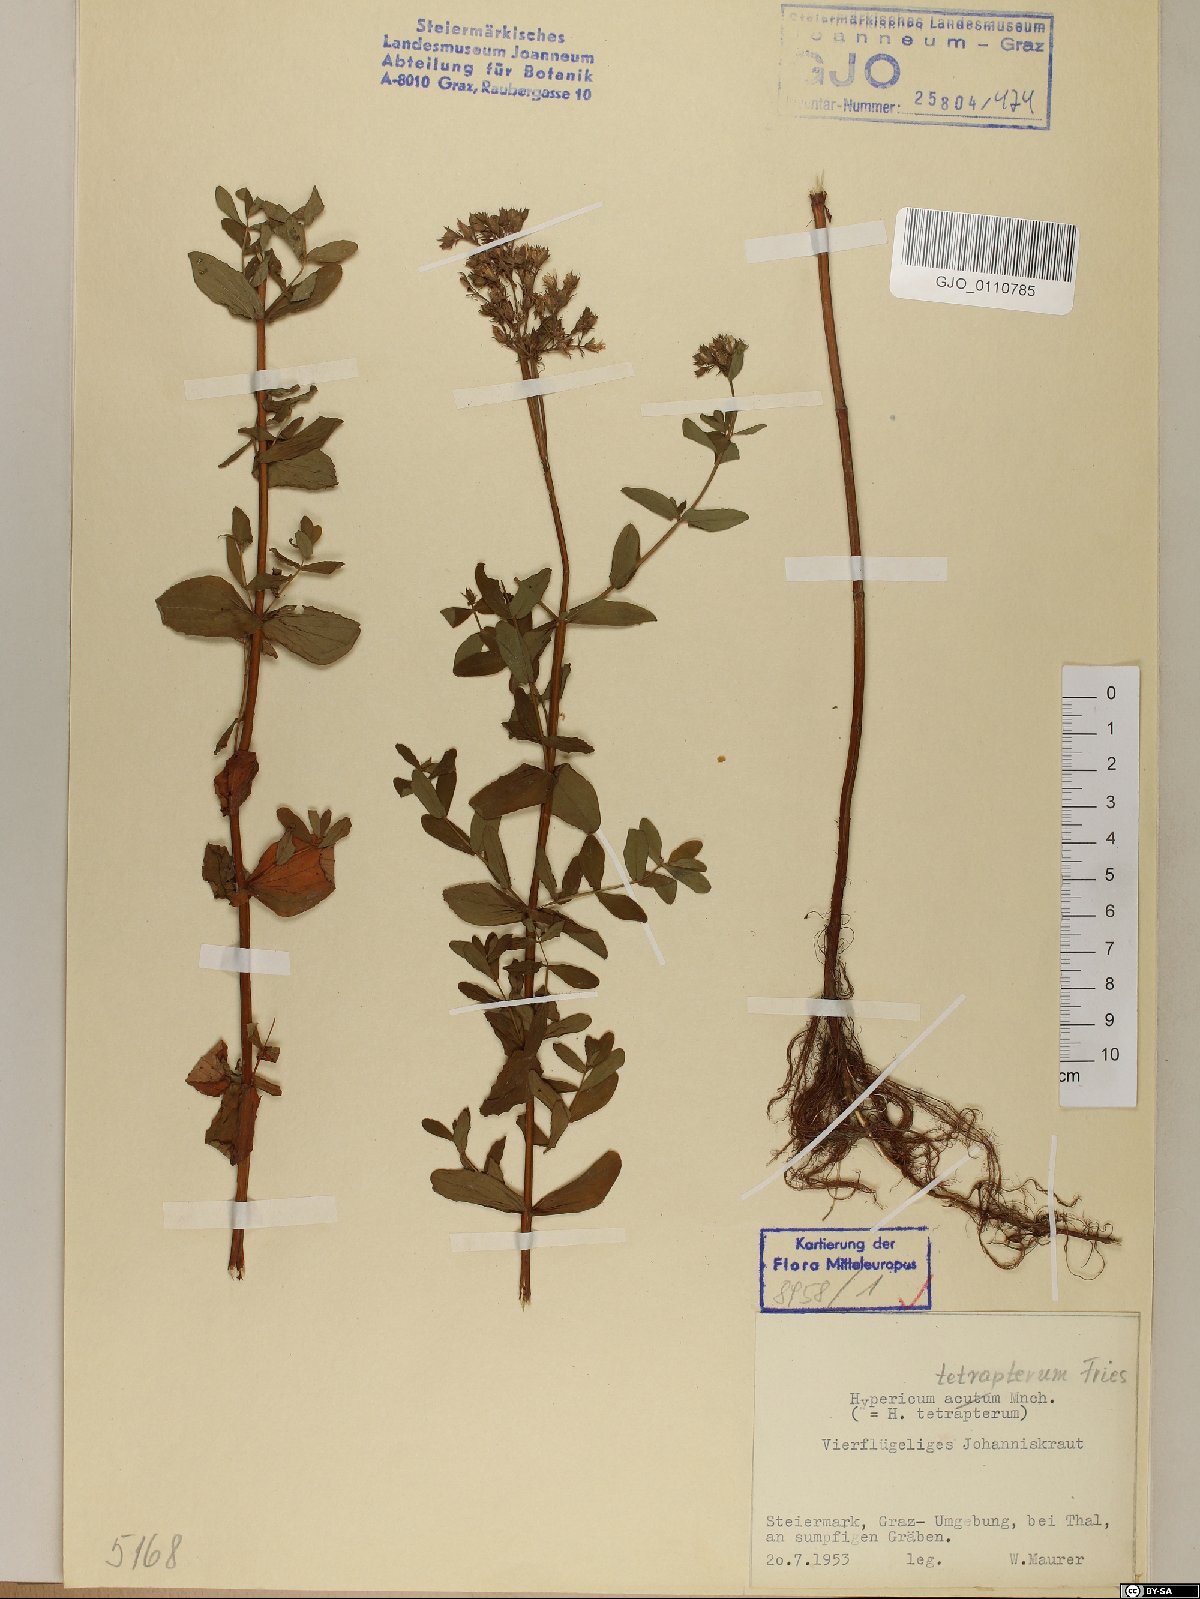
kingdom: Plantae
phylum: Tracheophyta
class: Magnoliopsida
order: Malpighiales
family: Hypericaceae
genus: Hypericum
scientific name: Hypericum tetrapterum
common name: Square-stalked st. john's-wort
